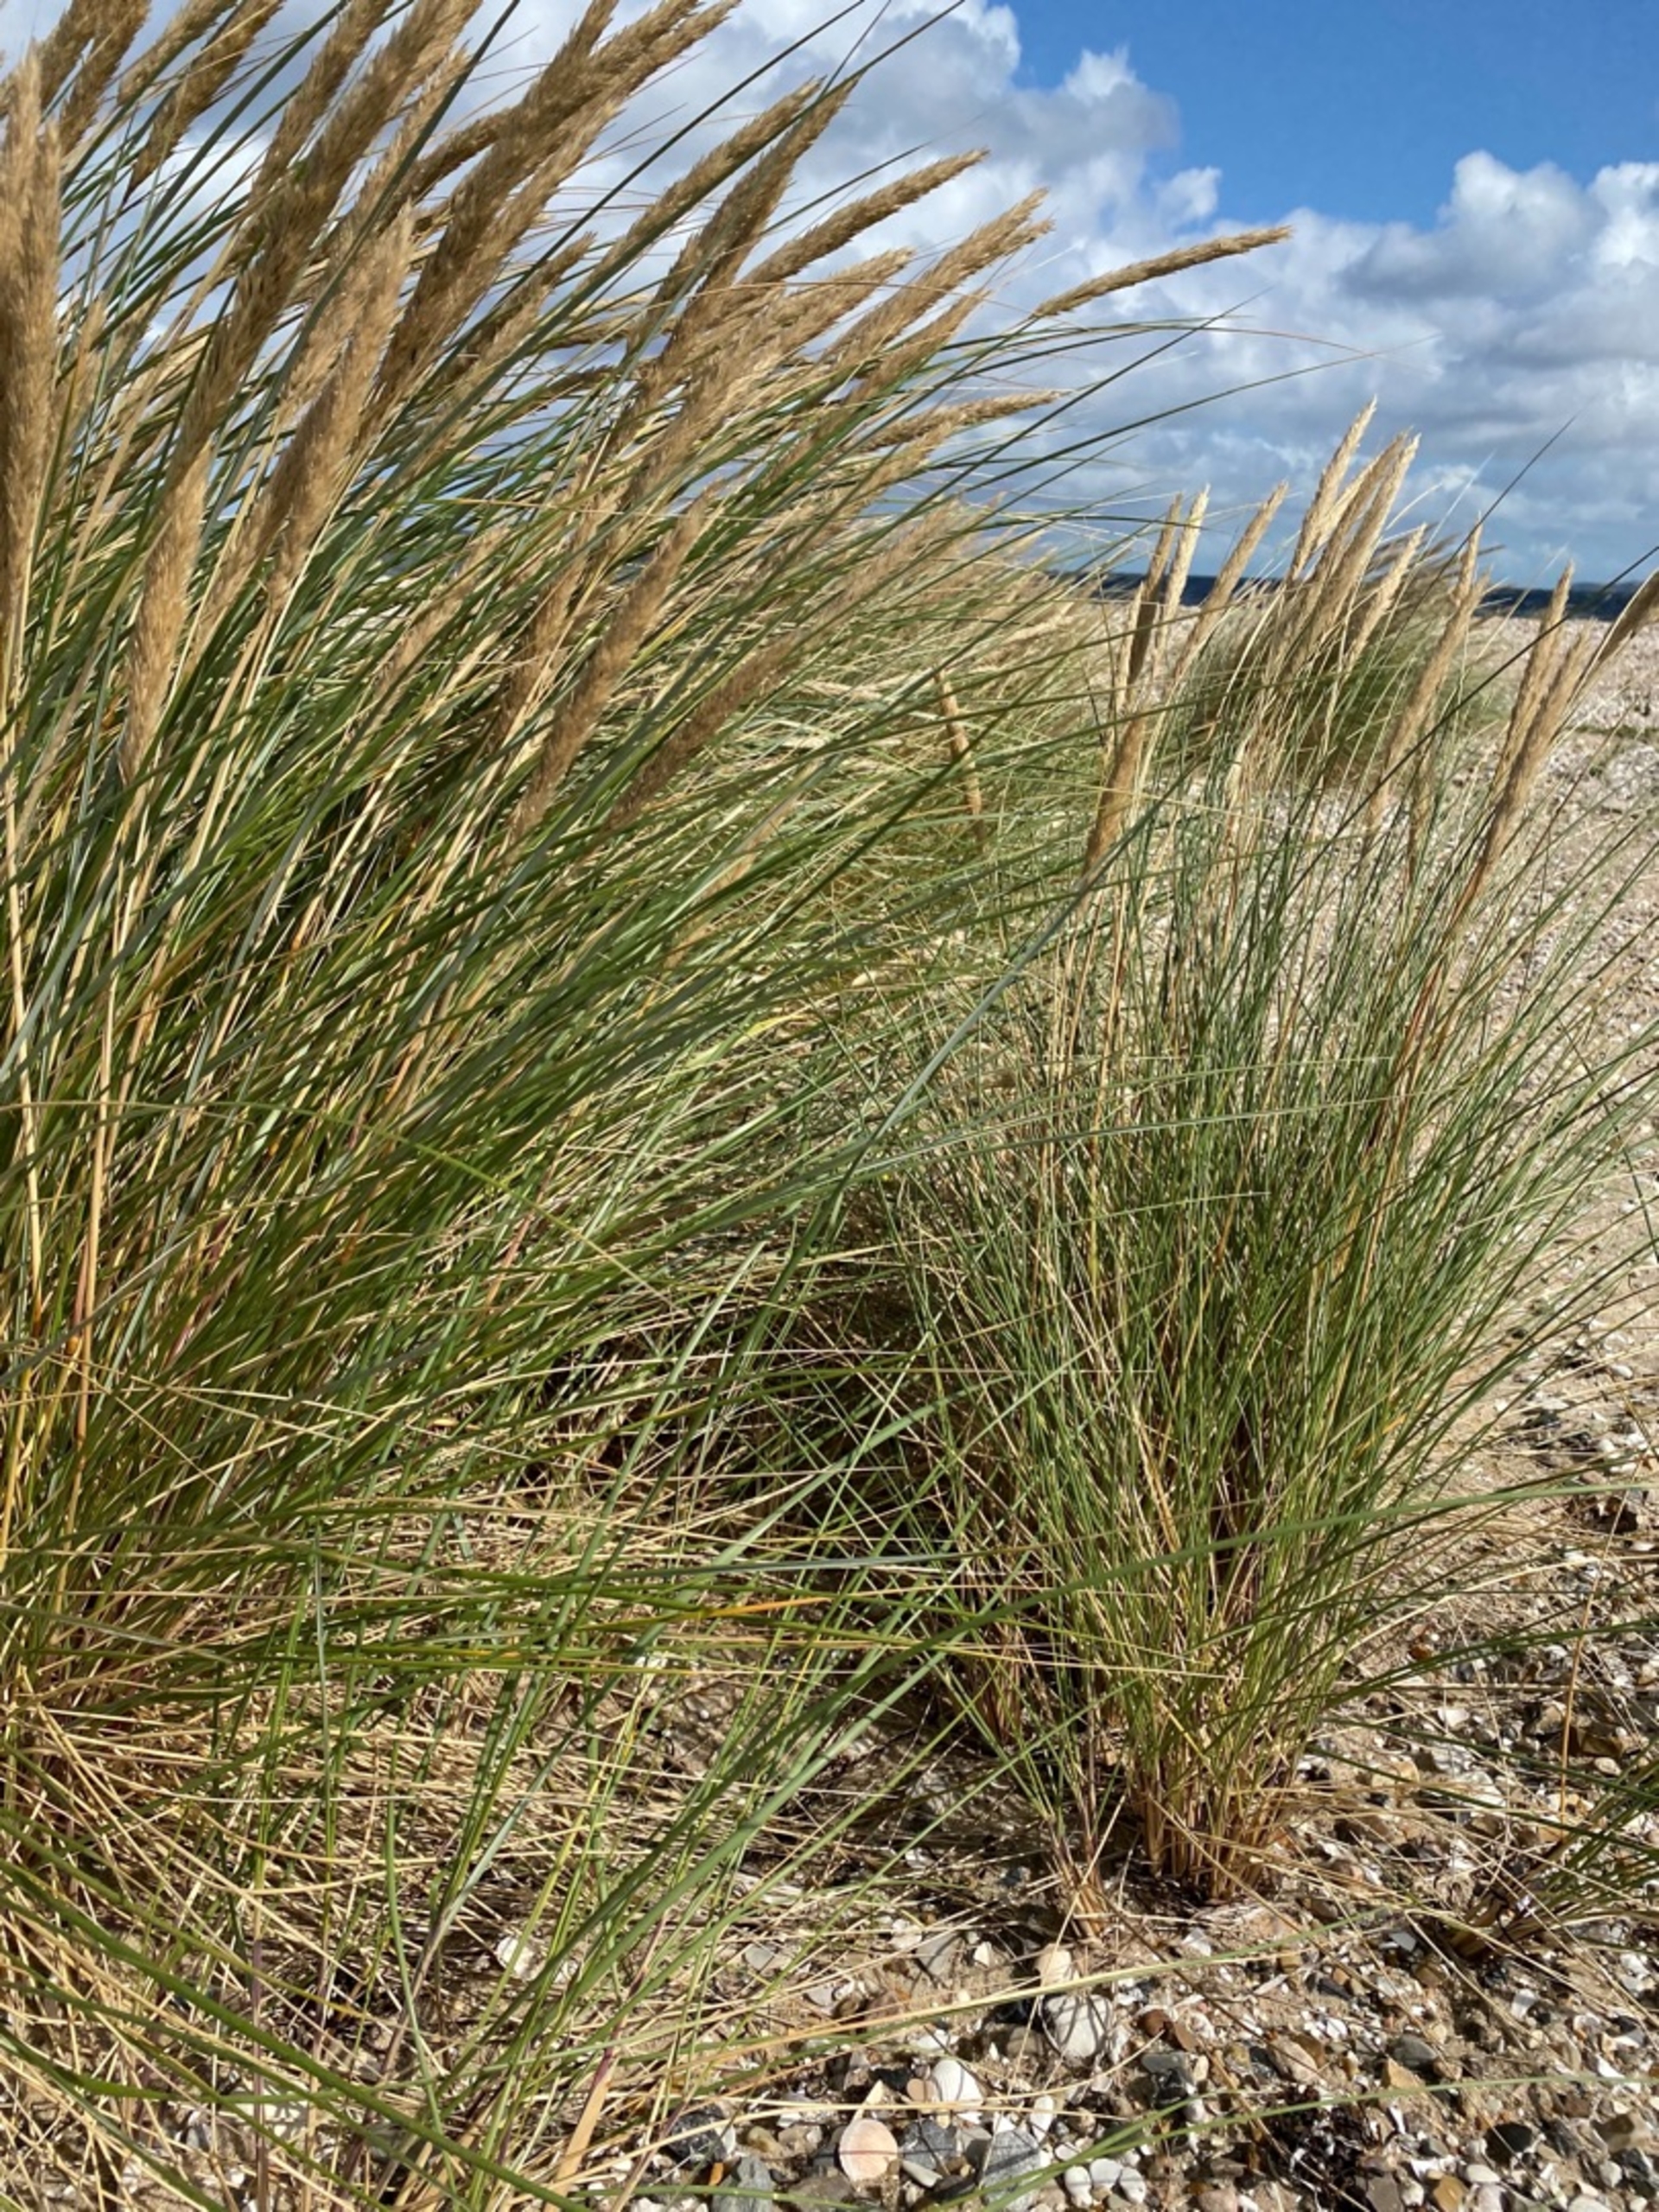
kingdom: Plantae
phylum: Tracheophyta
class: Liliopsida
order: Poales
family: Poaceae
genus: Calamagrostis
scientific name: Calamagrostis arenaria
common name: Sand-hjælme
